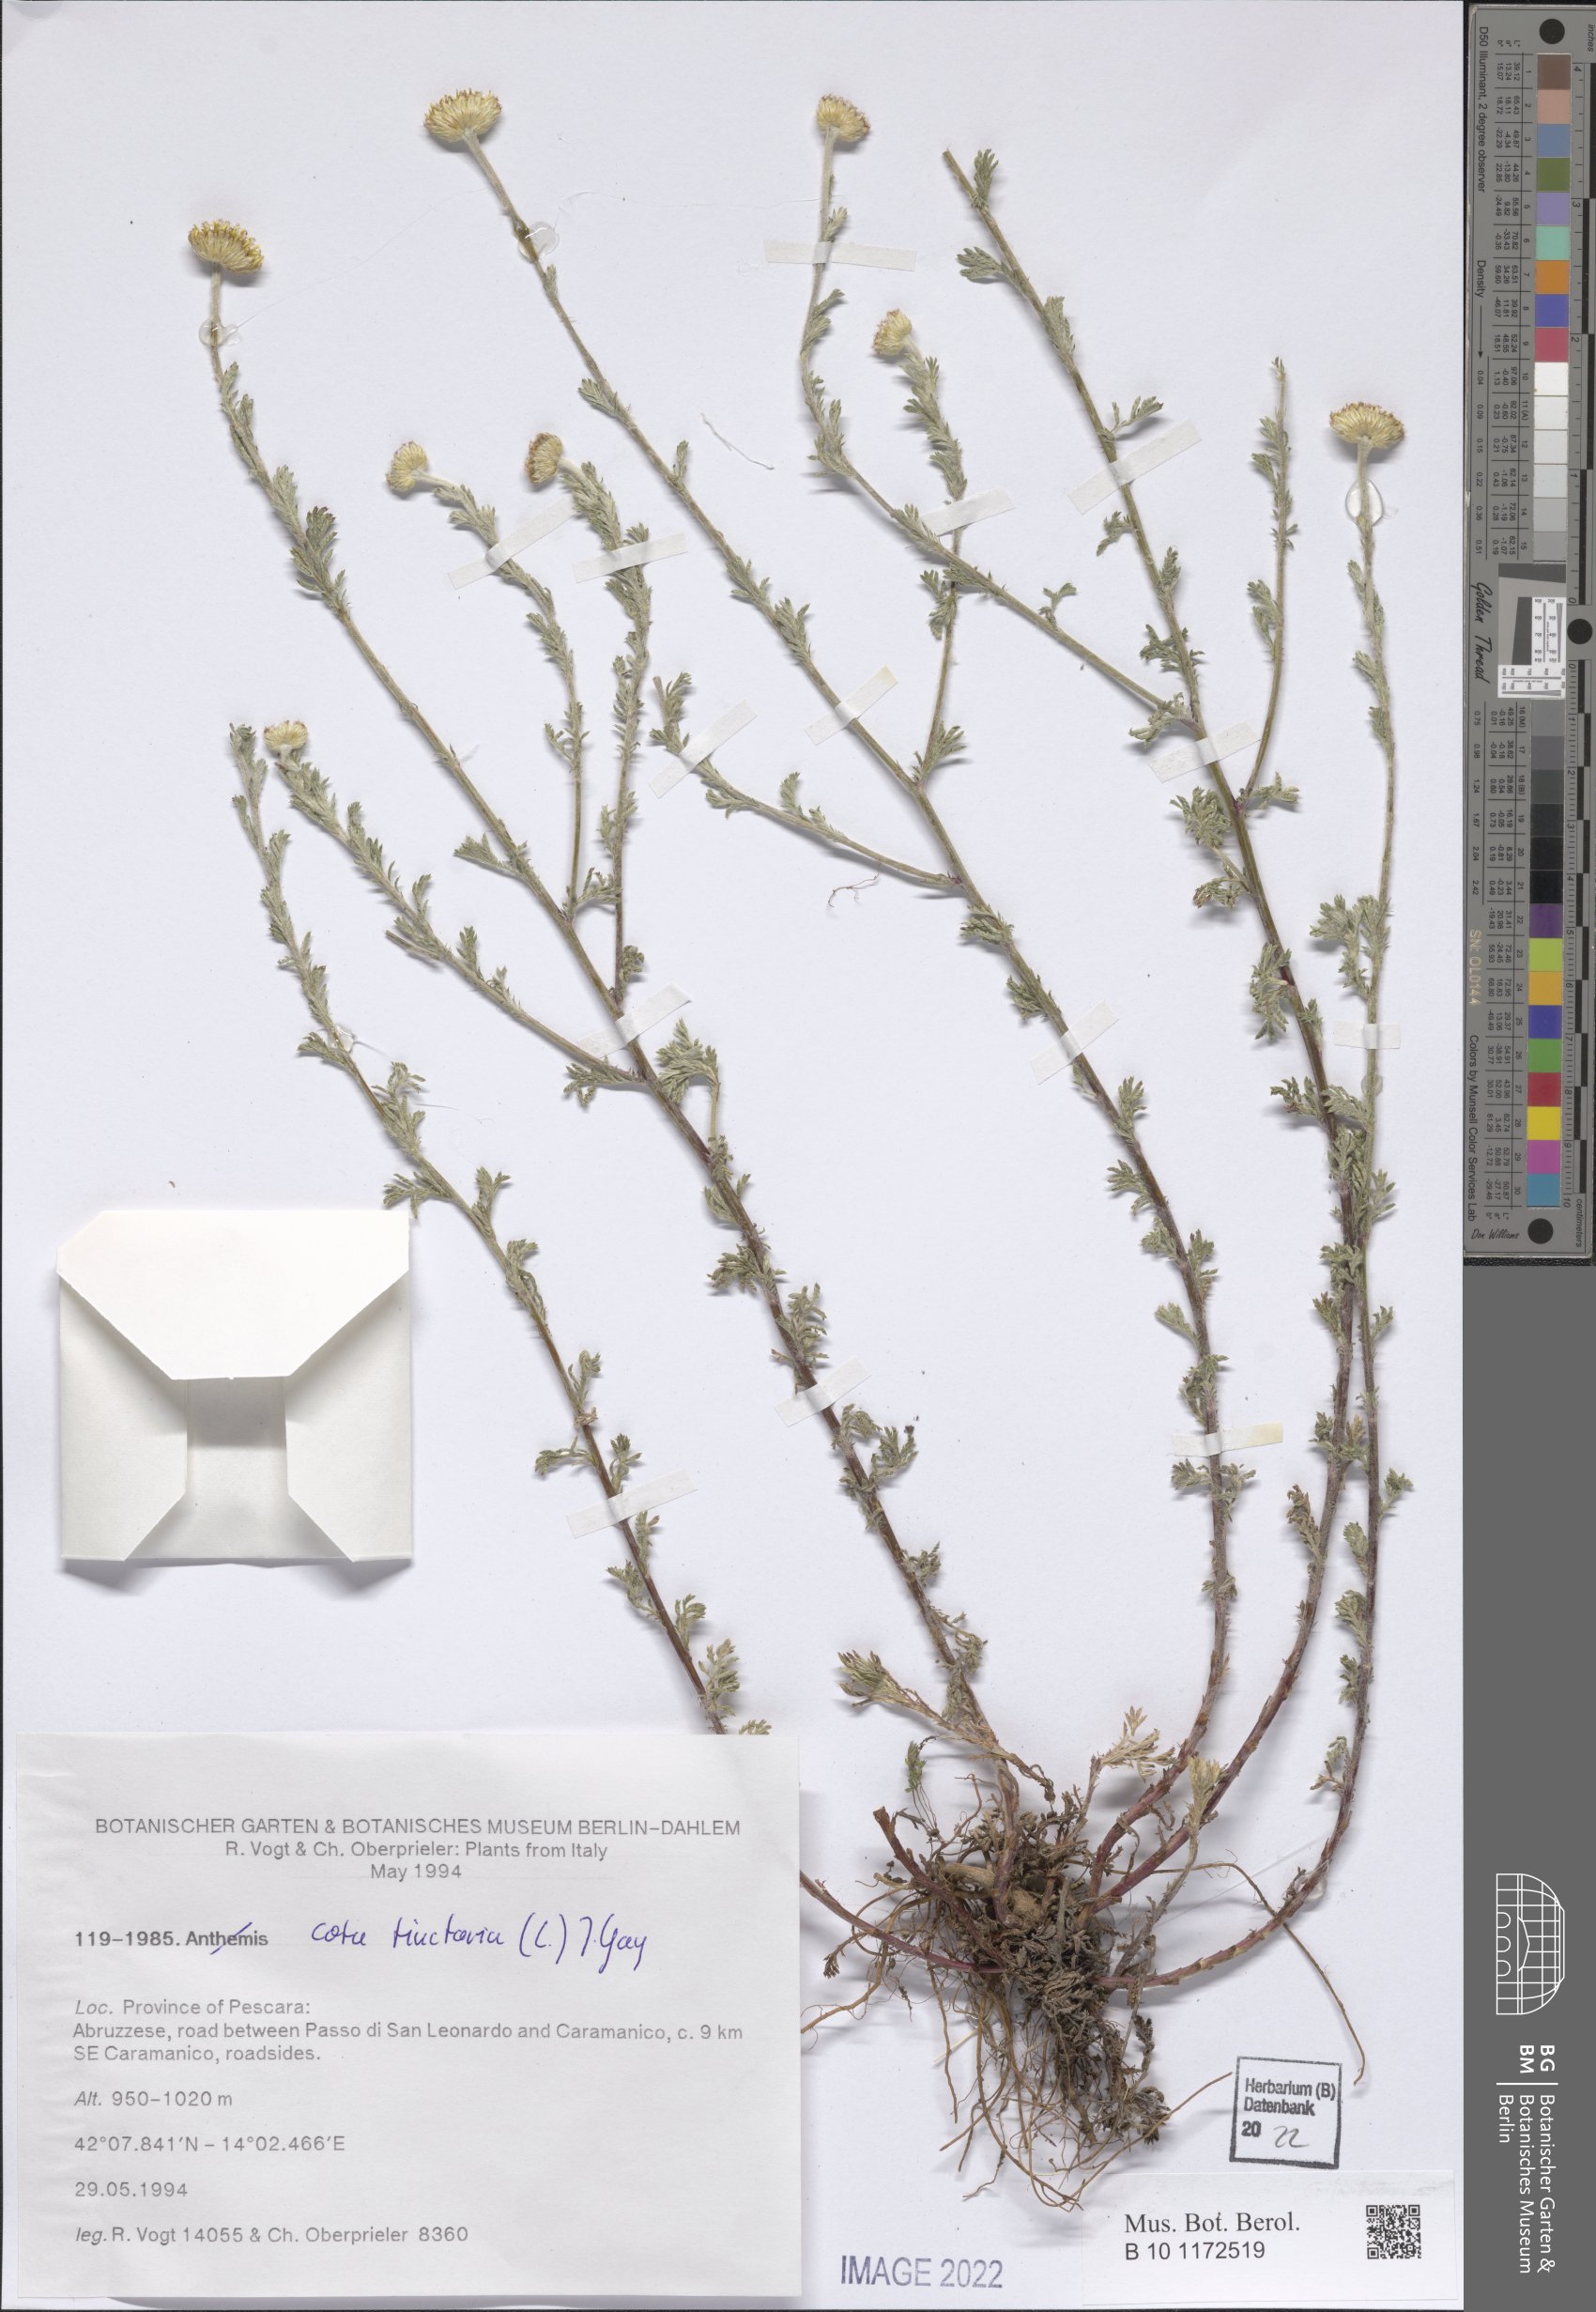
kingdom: Plantae
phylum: Tracheophyta
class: Magnoliopsida
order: Asterales
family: Asteraceae
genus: Cota
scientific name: Cota tinctoria
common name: Golden chamomile
